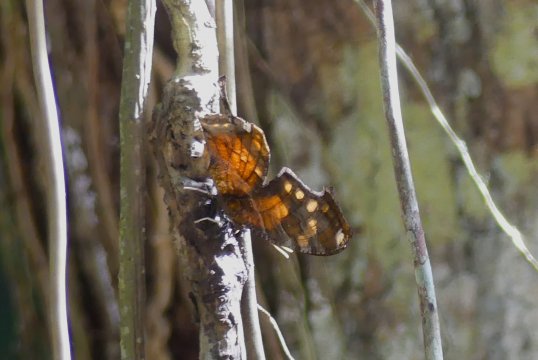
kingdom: Animalia
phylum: Arthropoda
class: Insecta
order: Lepidoptera
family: Nymphalidae
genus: Consul
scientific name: Consul fabius
